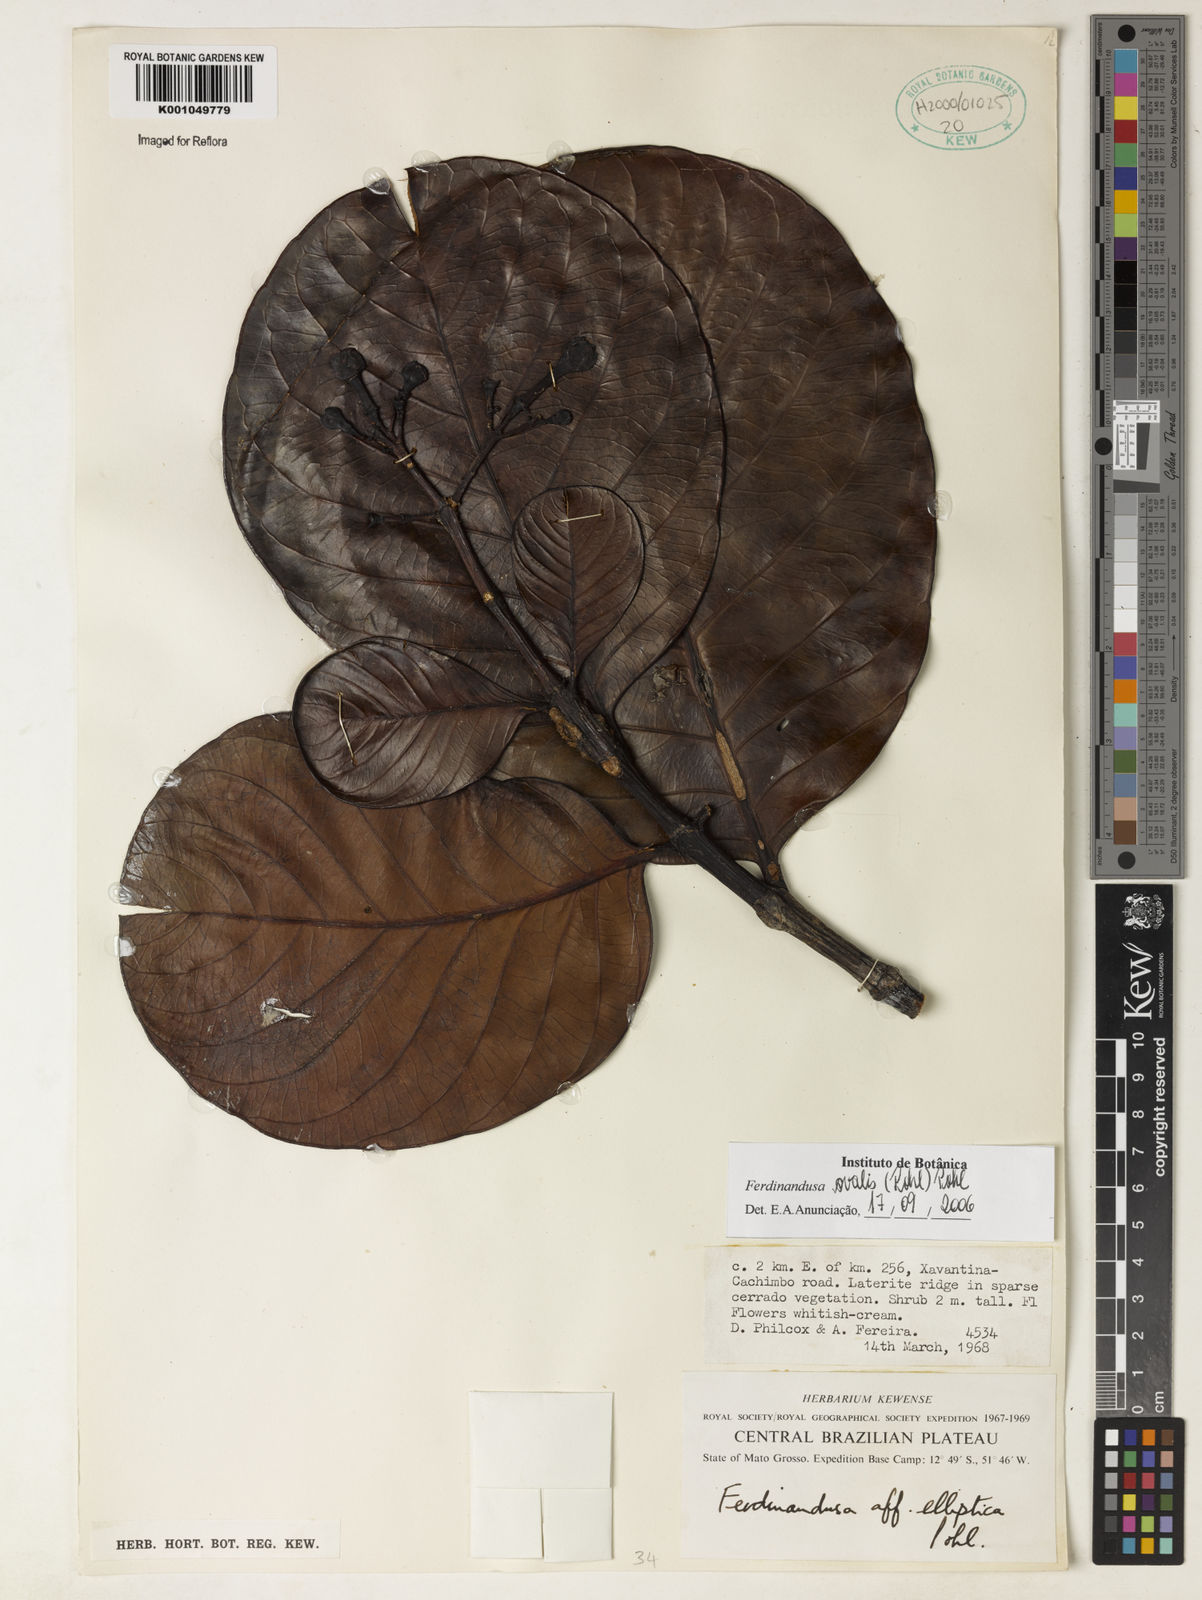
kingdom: Plantae
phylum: Tracheophyta
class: Magnoliopsida
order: Gentianales
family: Rubiaceae
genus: Ferdinandusa
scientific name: Ferdinandusa elliptica
